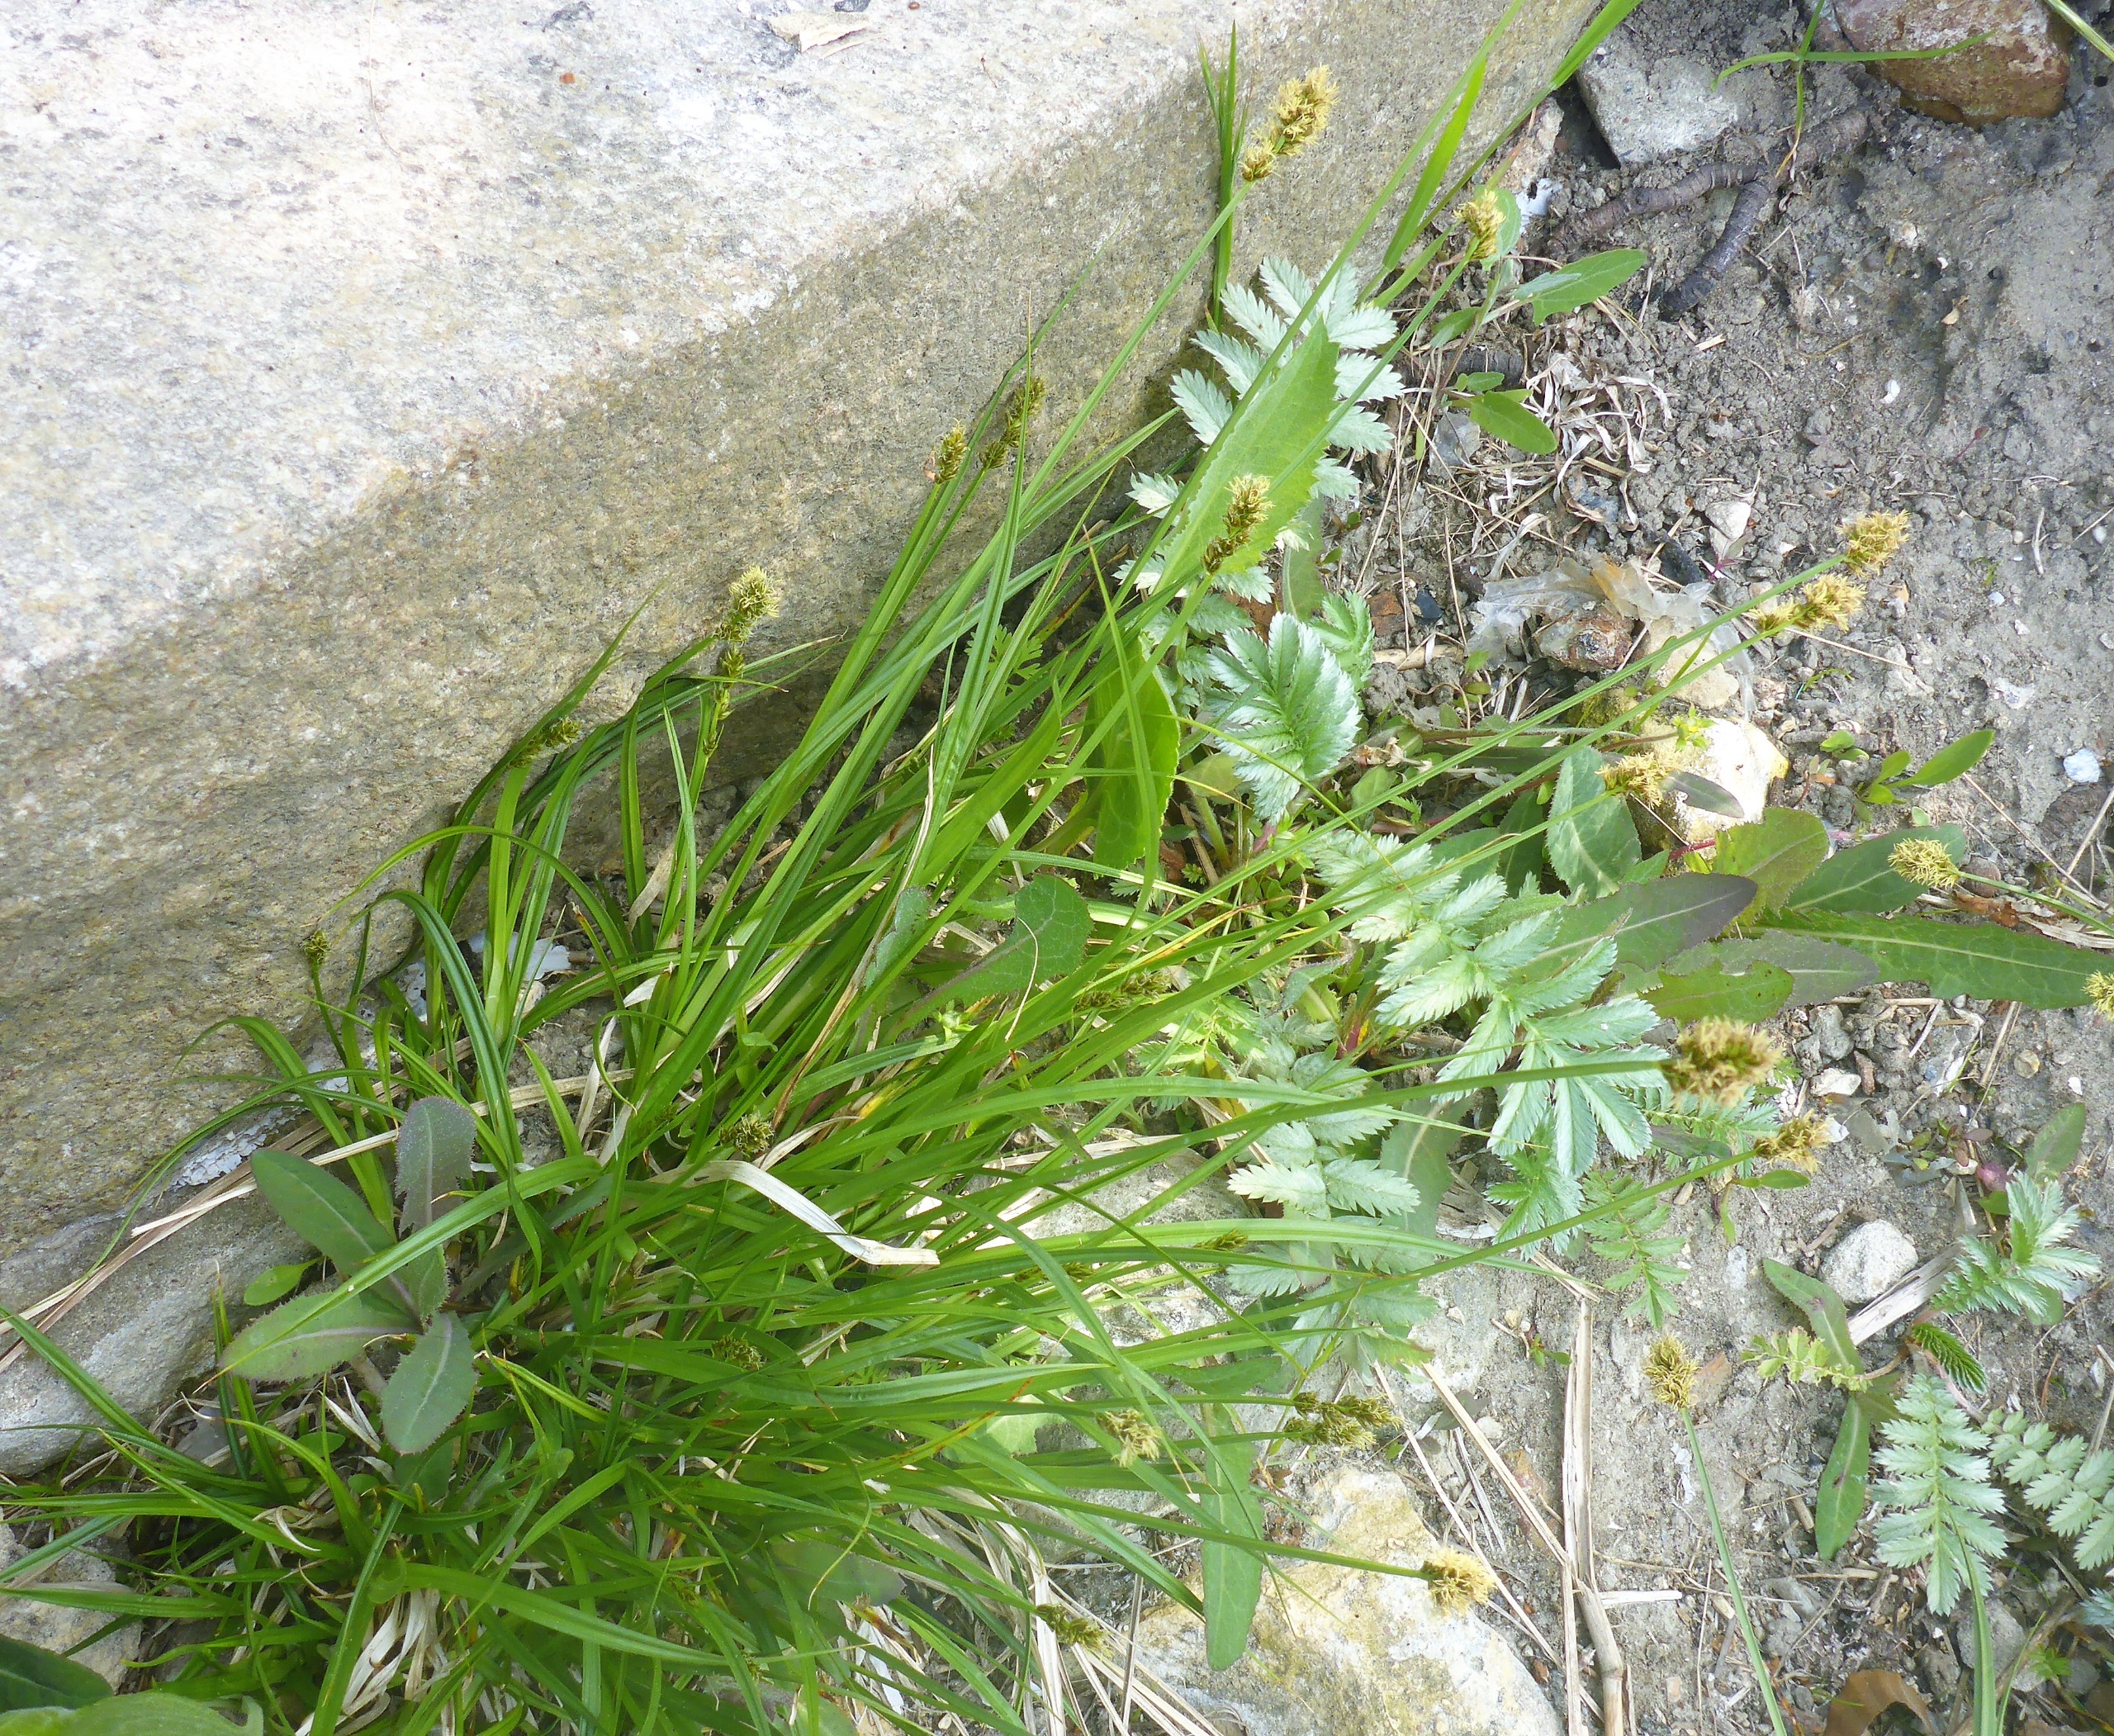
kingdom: Plantae
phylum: Tracheophyta
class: Liliopsida
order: Poales
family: Cyperaceae
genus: Carex
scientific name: Carex otrubae
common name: Sylt-star
